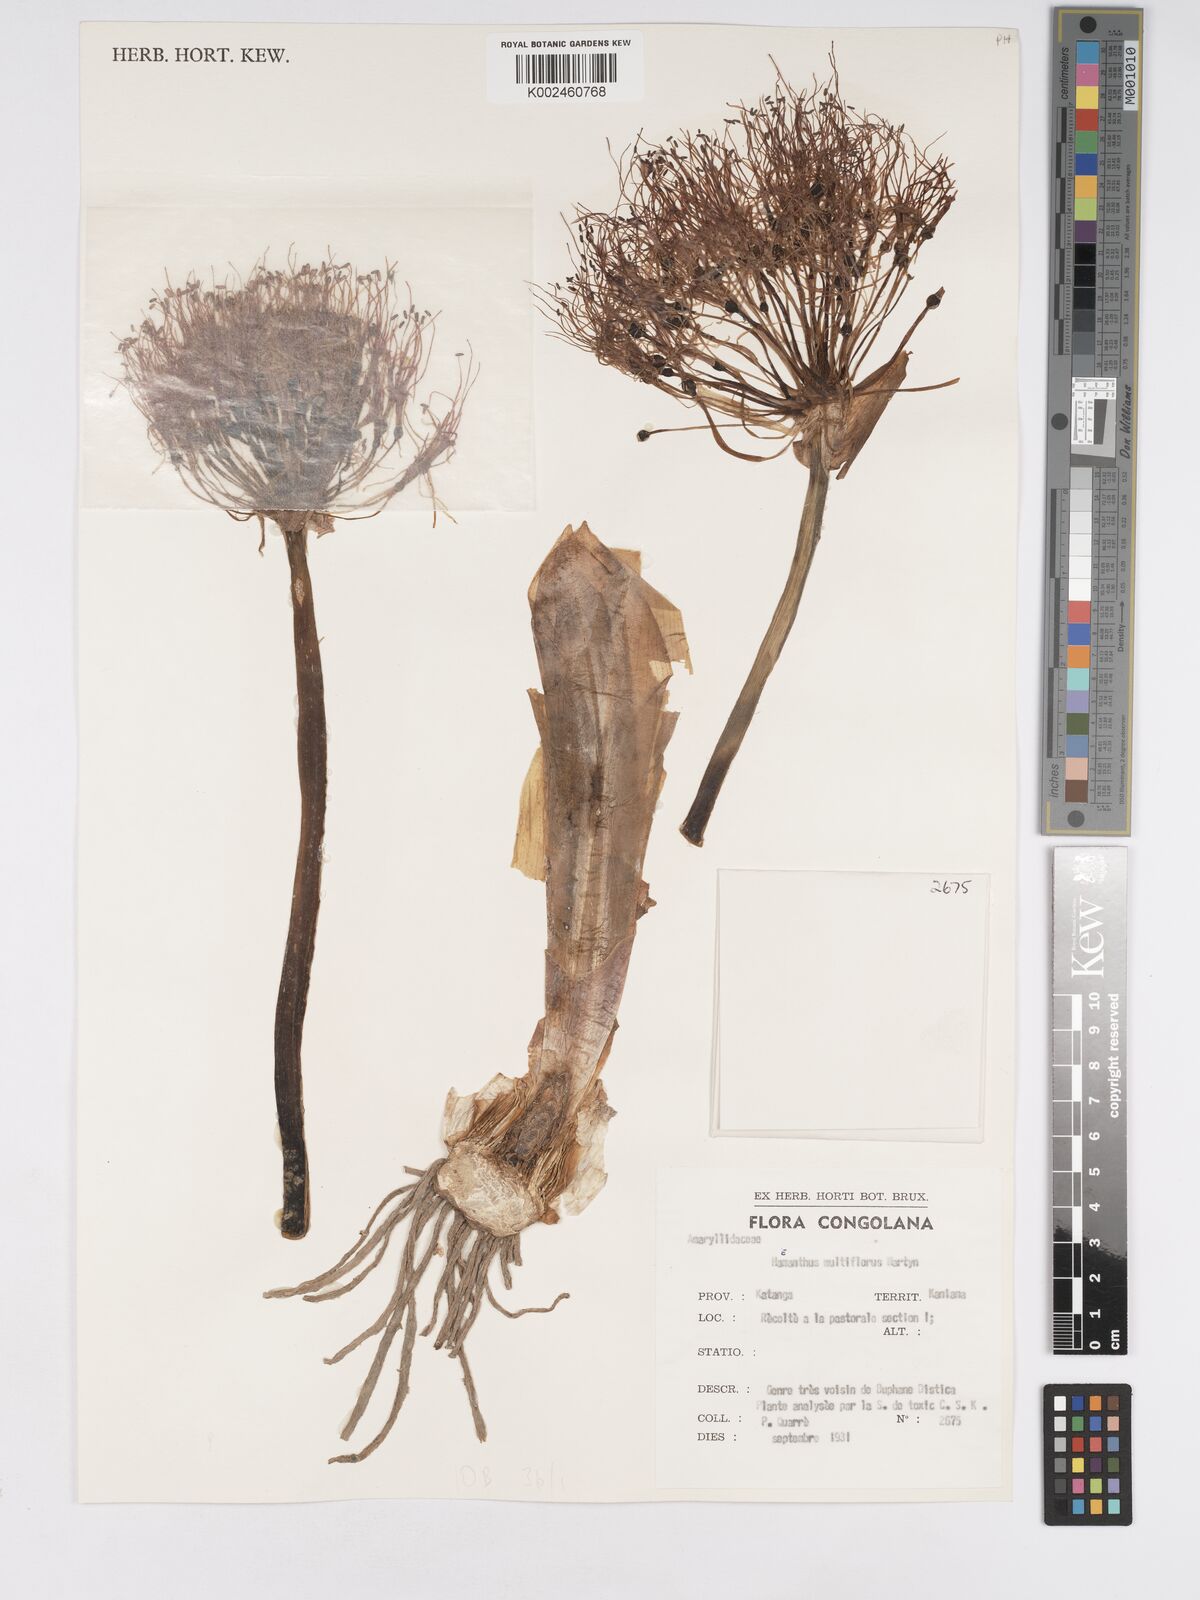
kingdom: Plantae
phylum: Tracheophyta
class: Liliopsida
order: Asparagales
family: Amaryllidaceae
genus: Scadoxus
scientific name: Scadoxus multiflorus
